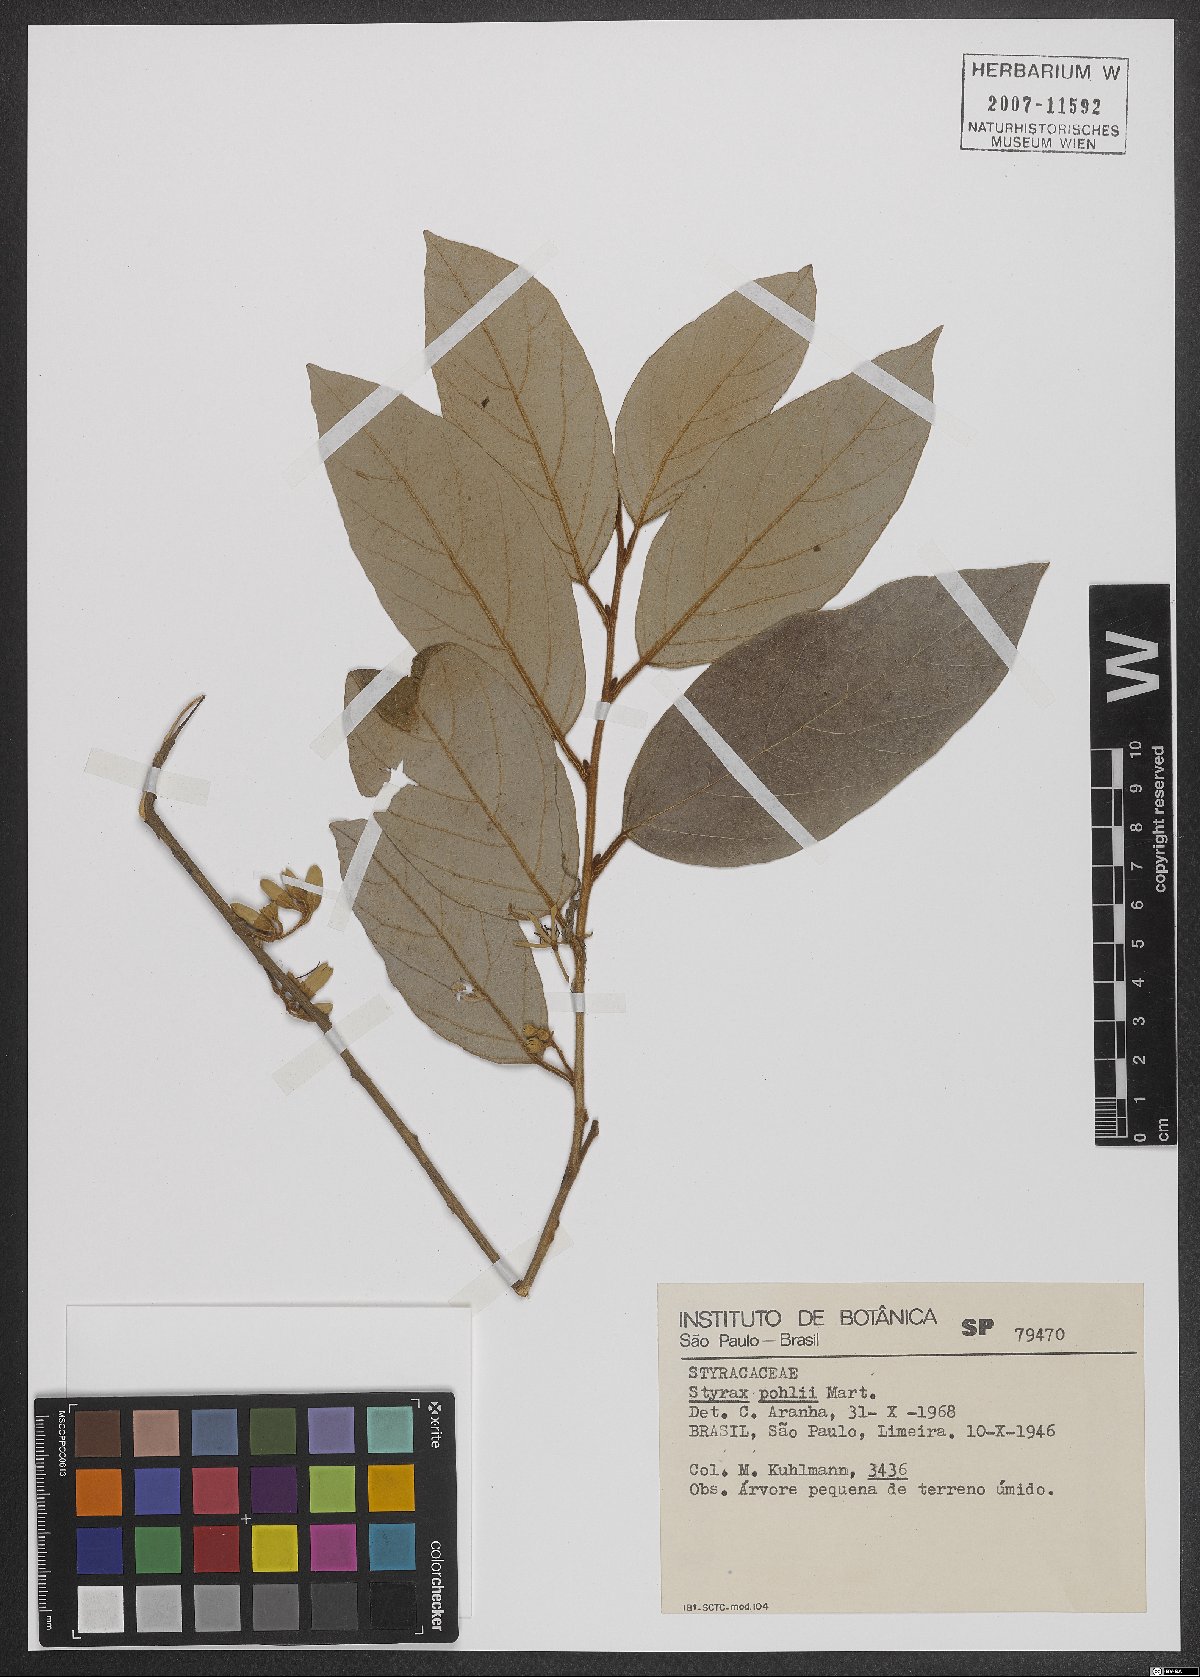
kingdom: Plantae
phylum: Tracheophyta
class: Magnoliopsida
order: Ericales
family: Styracaceae
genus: Styrax
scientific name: Styrax pohlii
